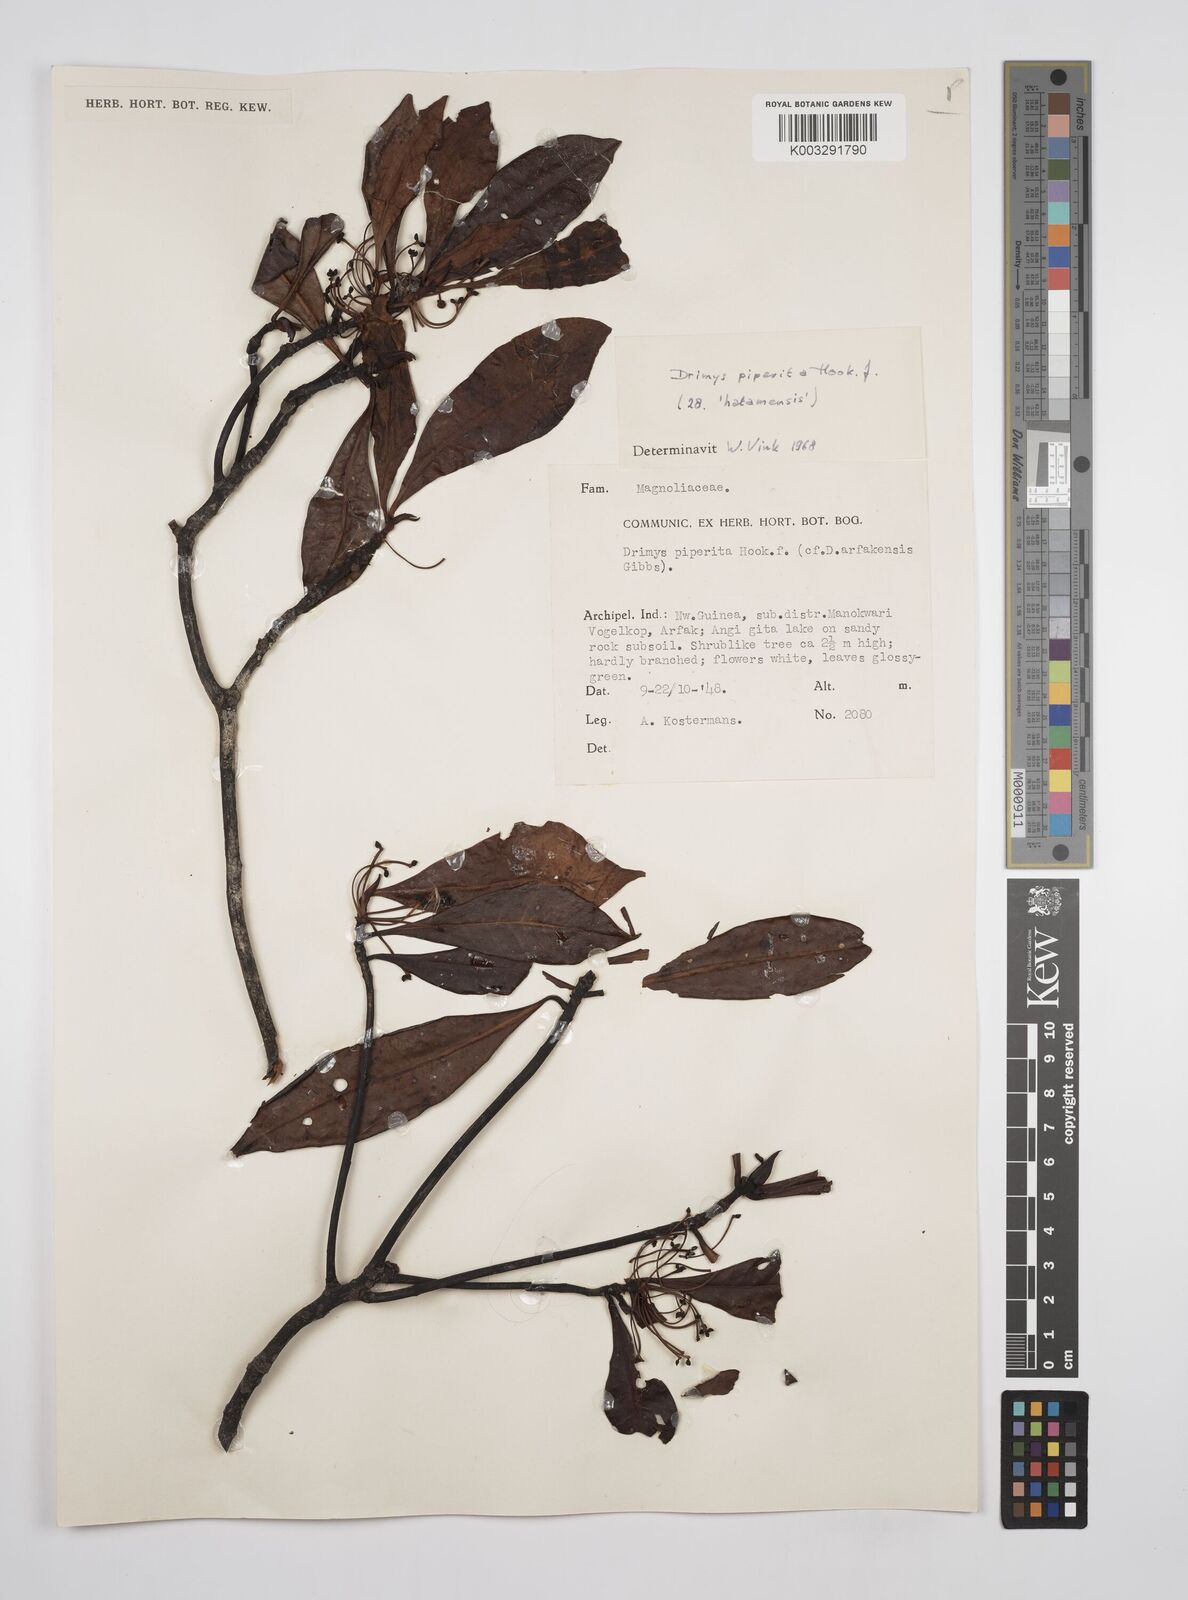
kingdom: Plantae
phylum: Tracheophyta
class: Magnoliopsida
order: Canellales
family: Winteraceae
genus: Drimys
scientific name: Drimys piperita
